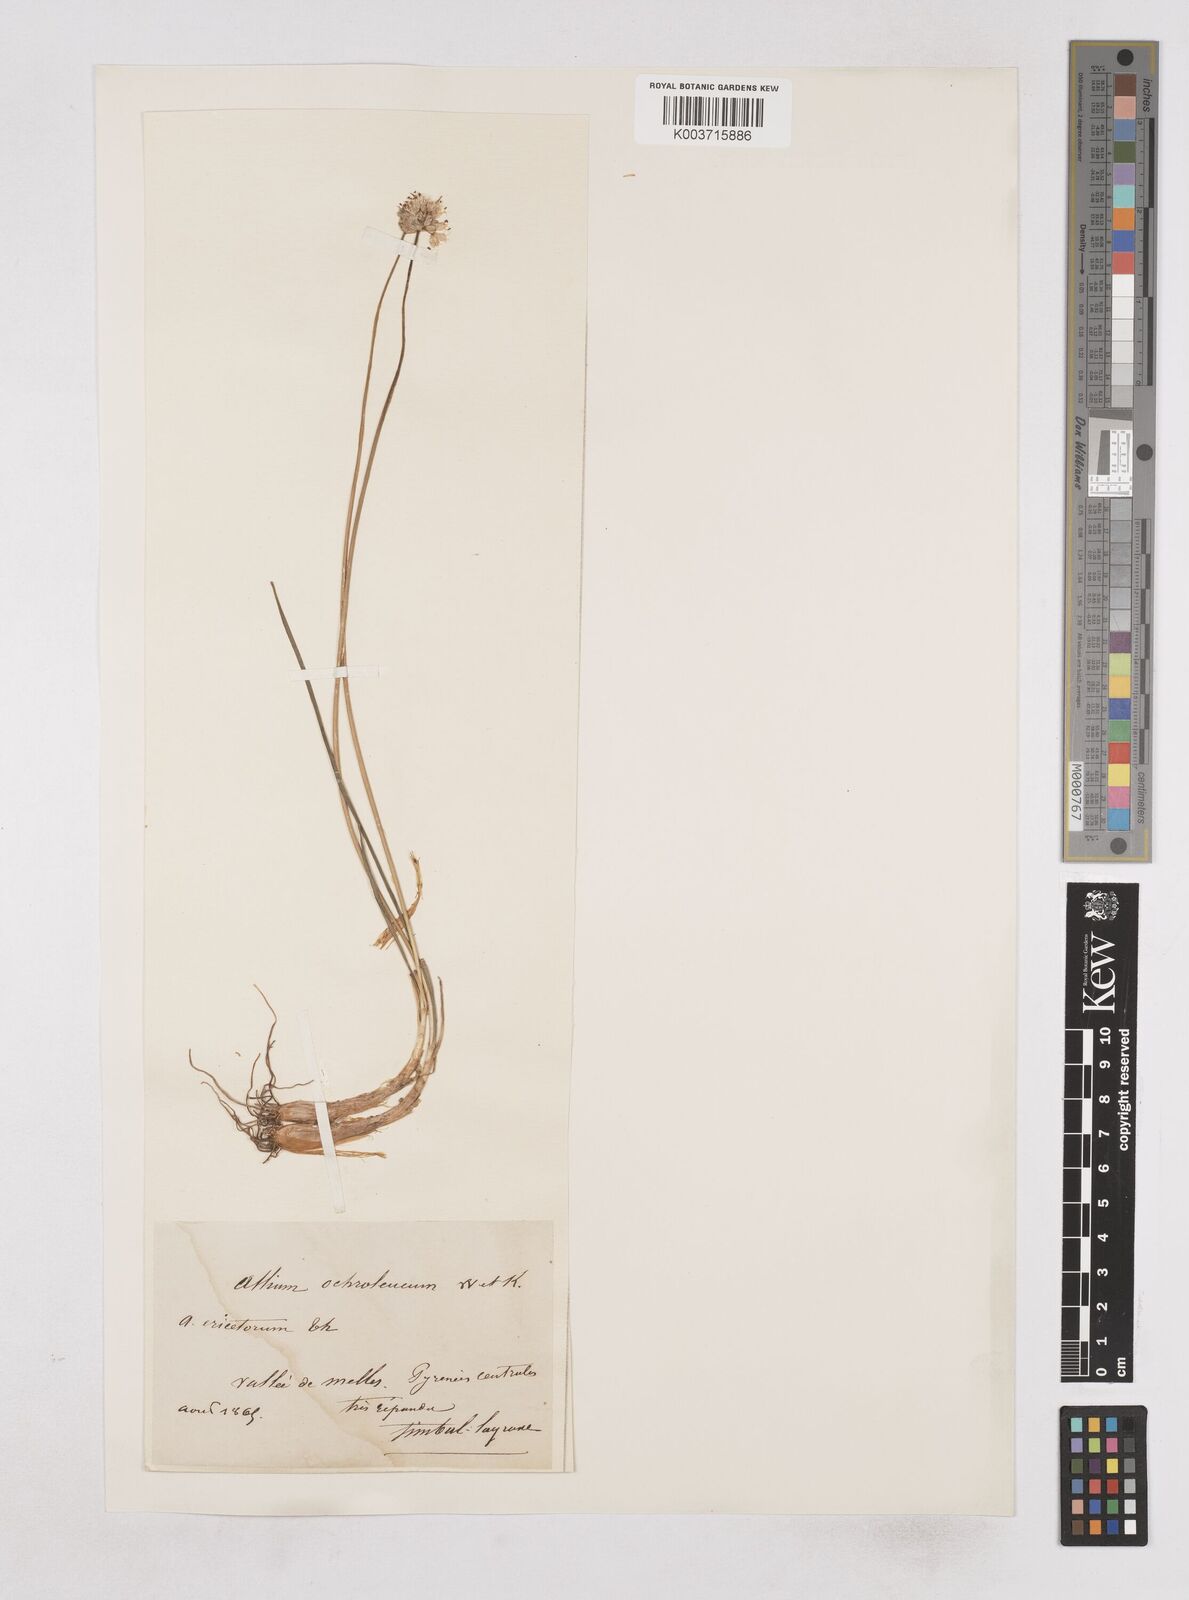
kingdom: Plantae
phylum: Tracheophyta
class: Liliopsida
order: Asparagales
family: Amaryllidaceae
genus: Allium
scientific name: Allium ericetorum
